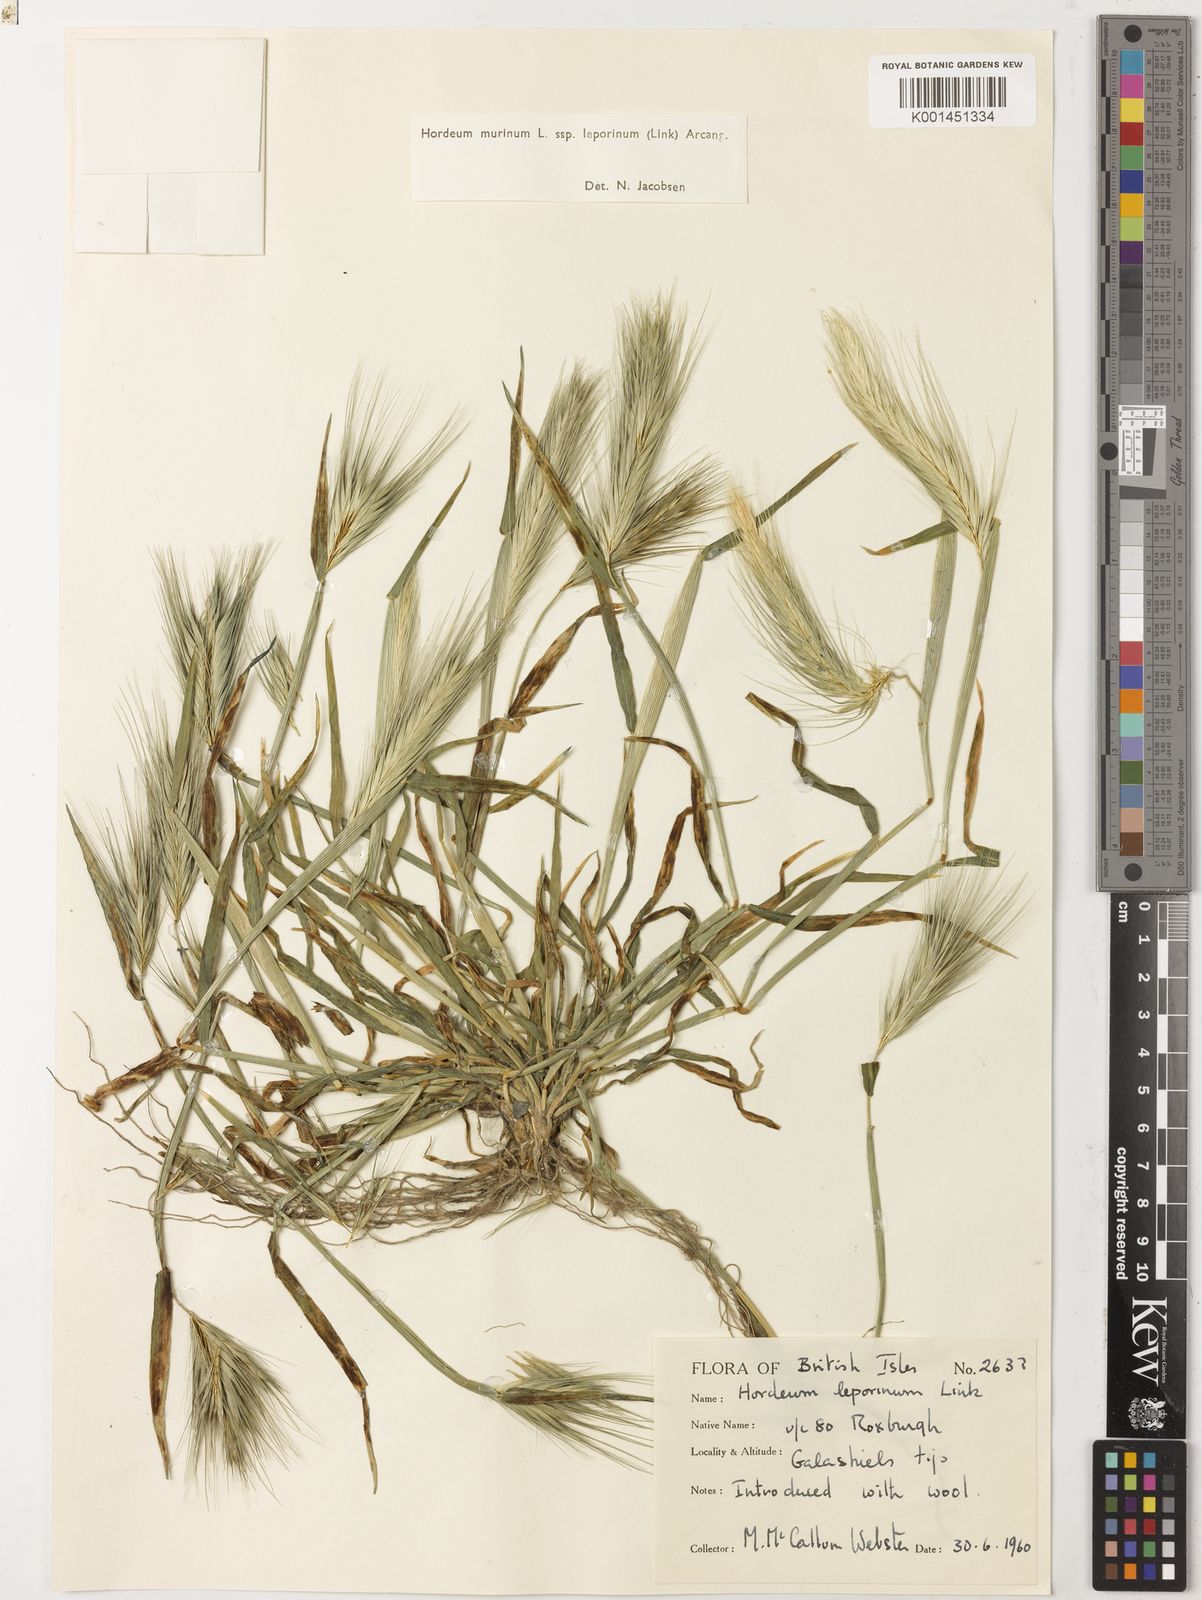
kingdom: Plantae
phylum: Tracheophyta
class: Liliopsida
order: Poales
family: Poaceae
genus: Hordeum
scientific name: Hordeum murinum
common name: Wall barley
